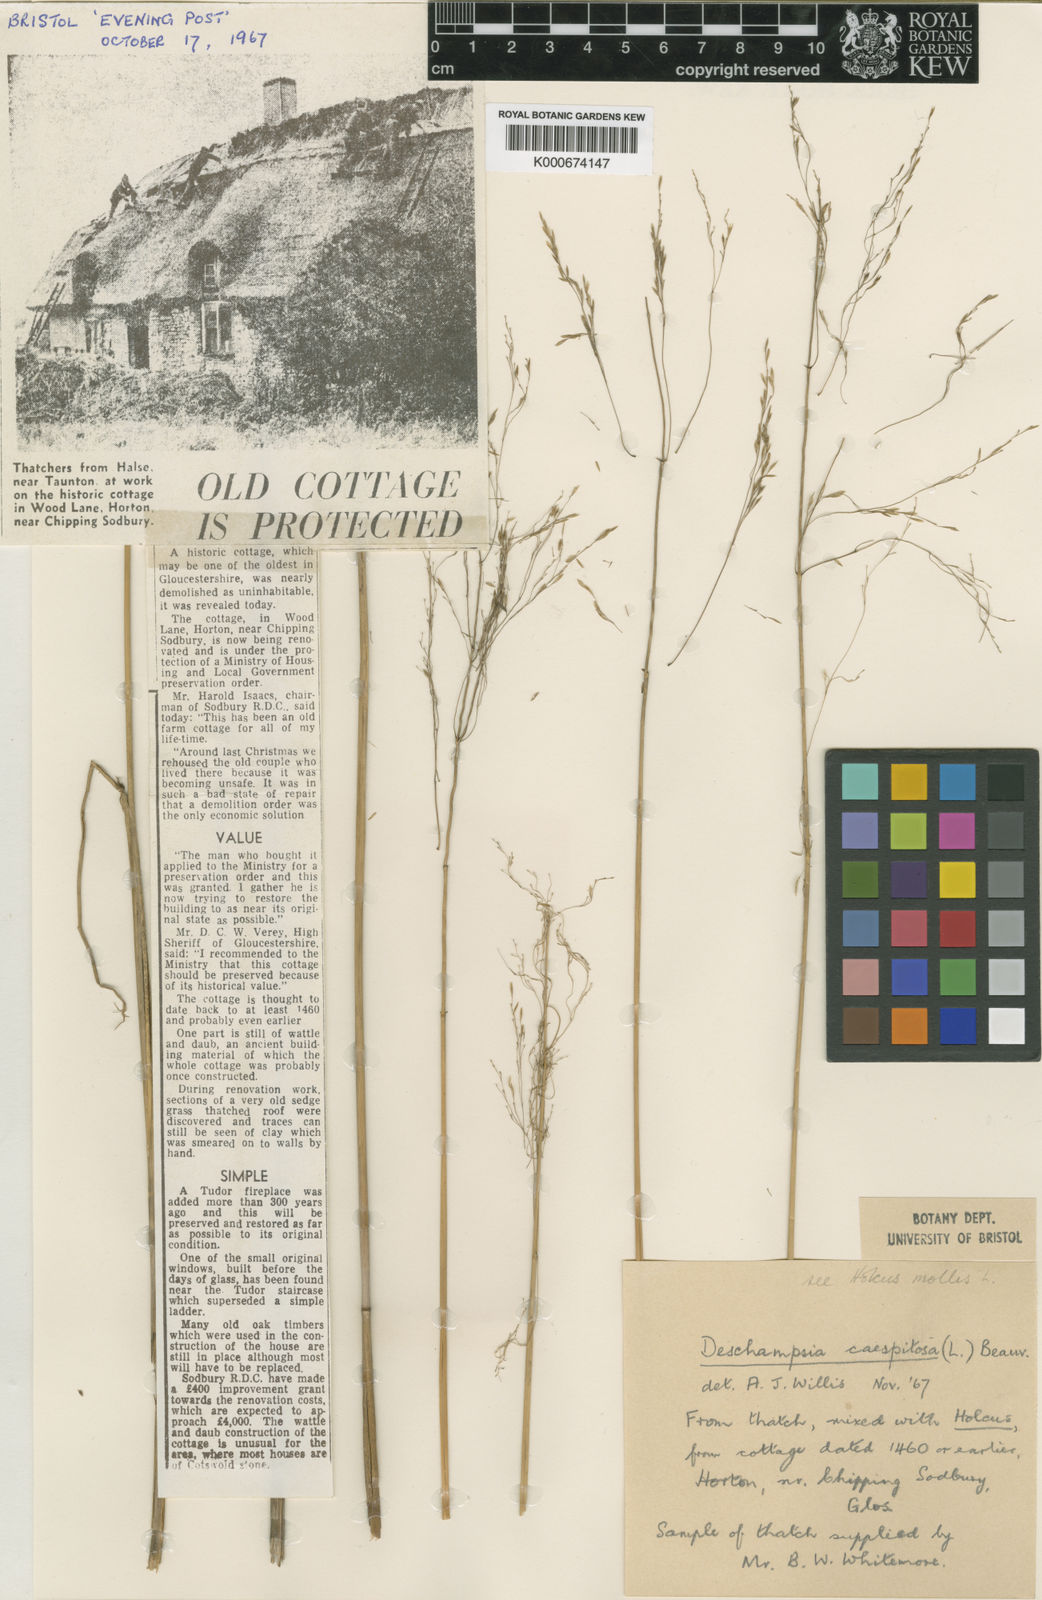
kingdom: Plantae
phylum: Tracheophyta
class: Liliopsida
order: Poales
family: Poaceae
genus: Deschampsia
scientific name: Deschampsia
